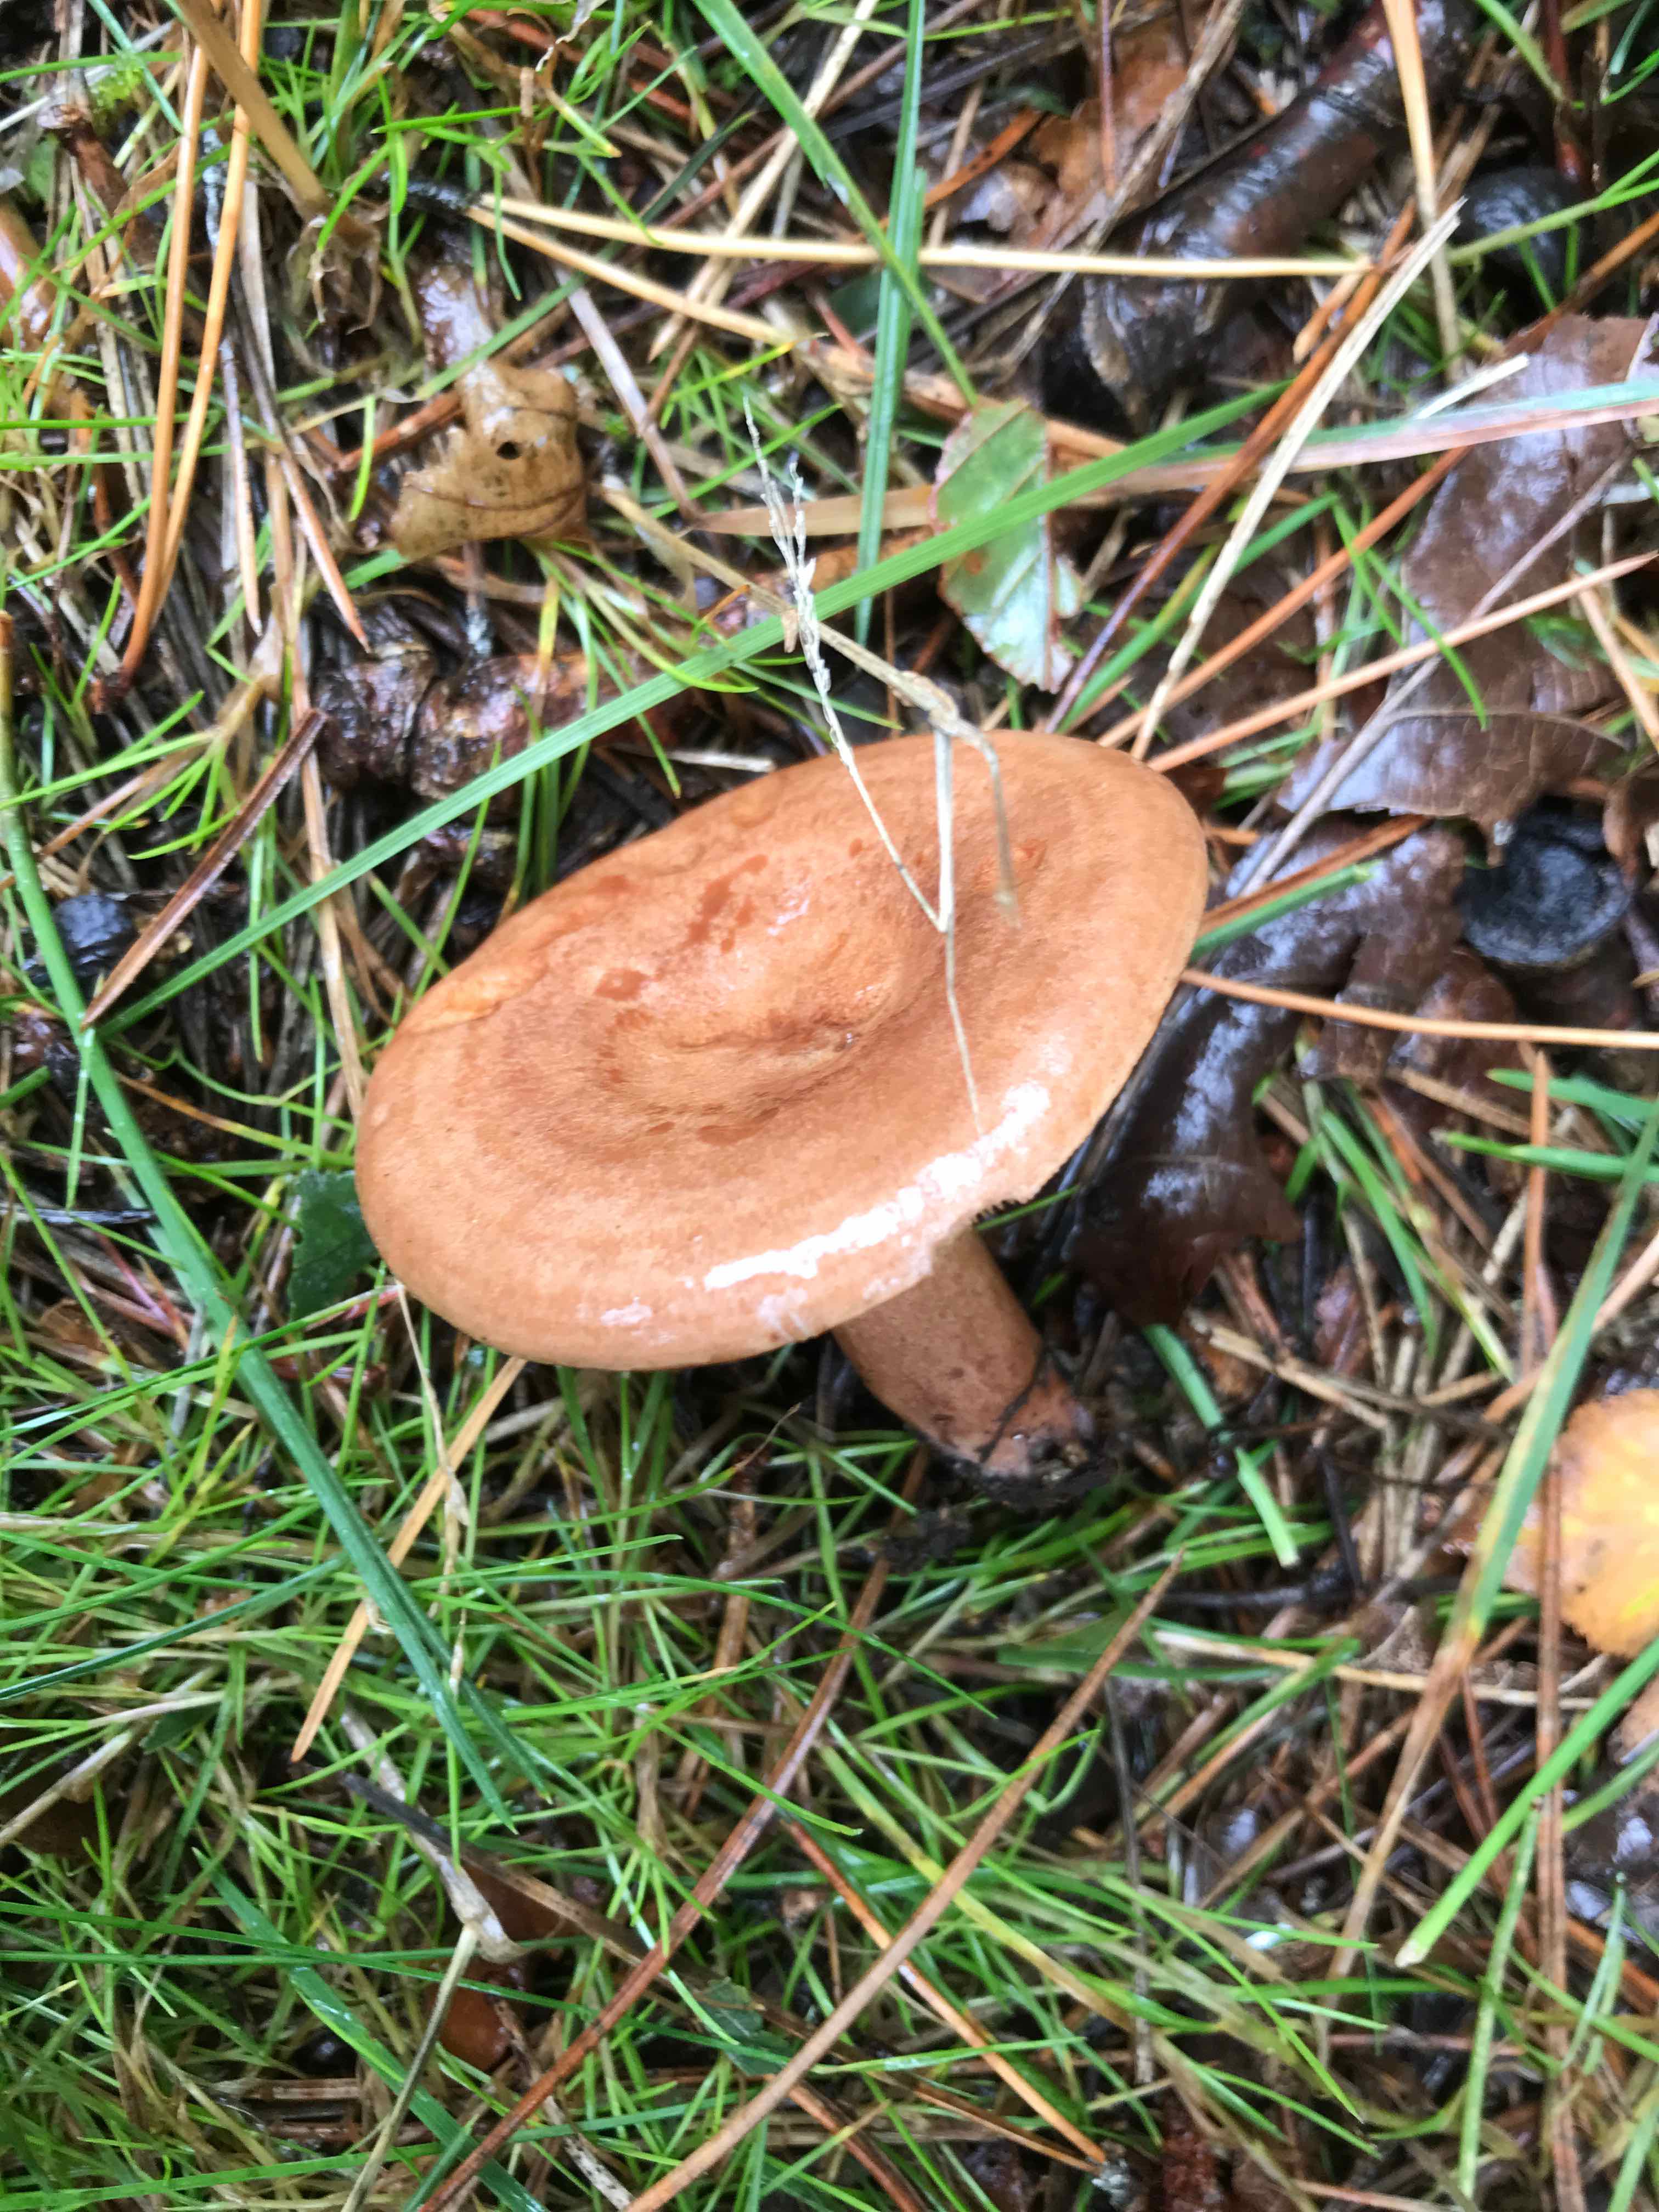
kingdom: Fungi
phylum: Basidiomycota
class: Agaricomycetes
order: Russulales
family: Russulaceae
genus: Lactarius
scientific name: Lactarius quietus
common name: ege-mælkehat
